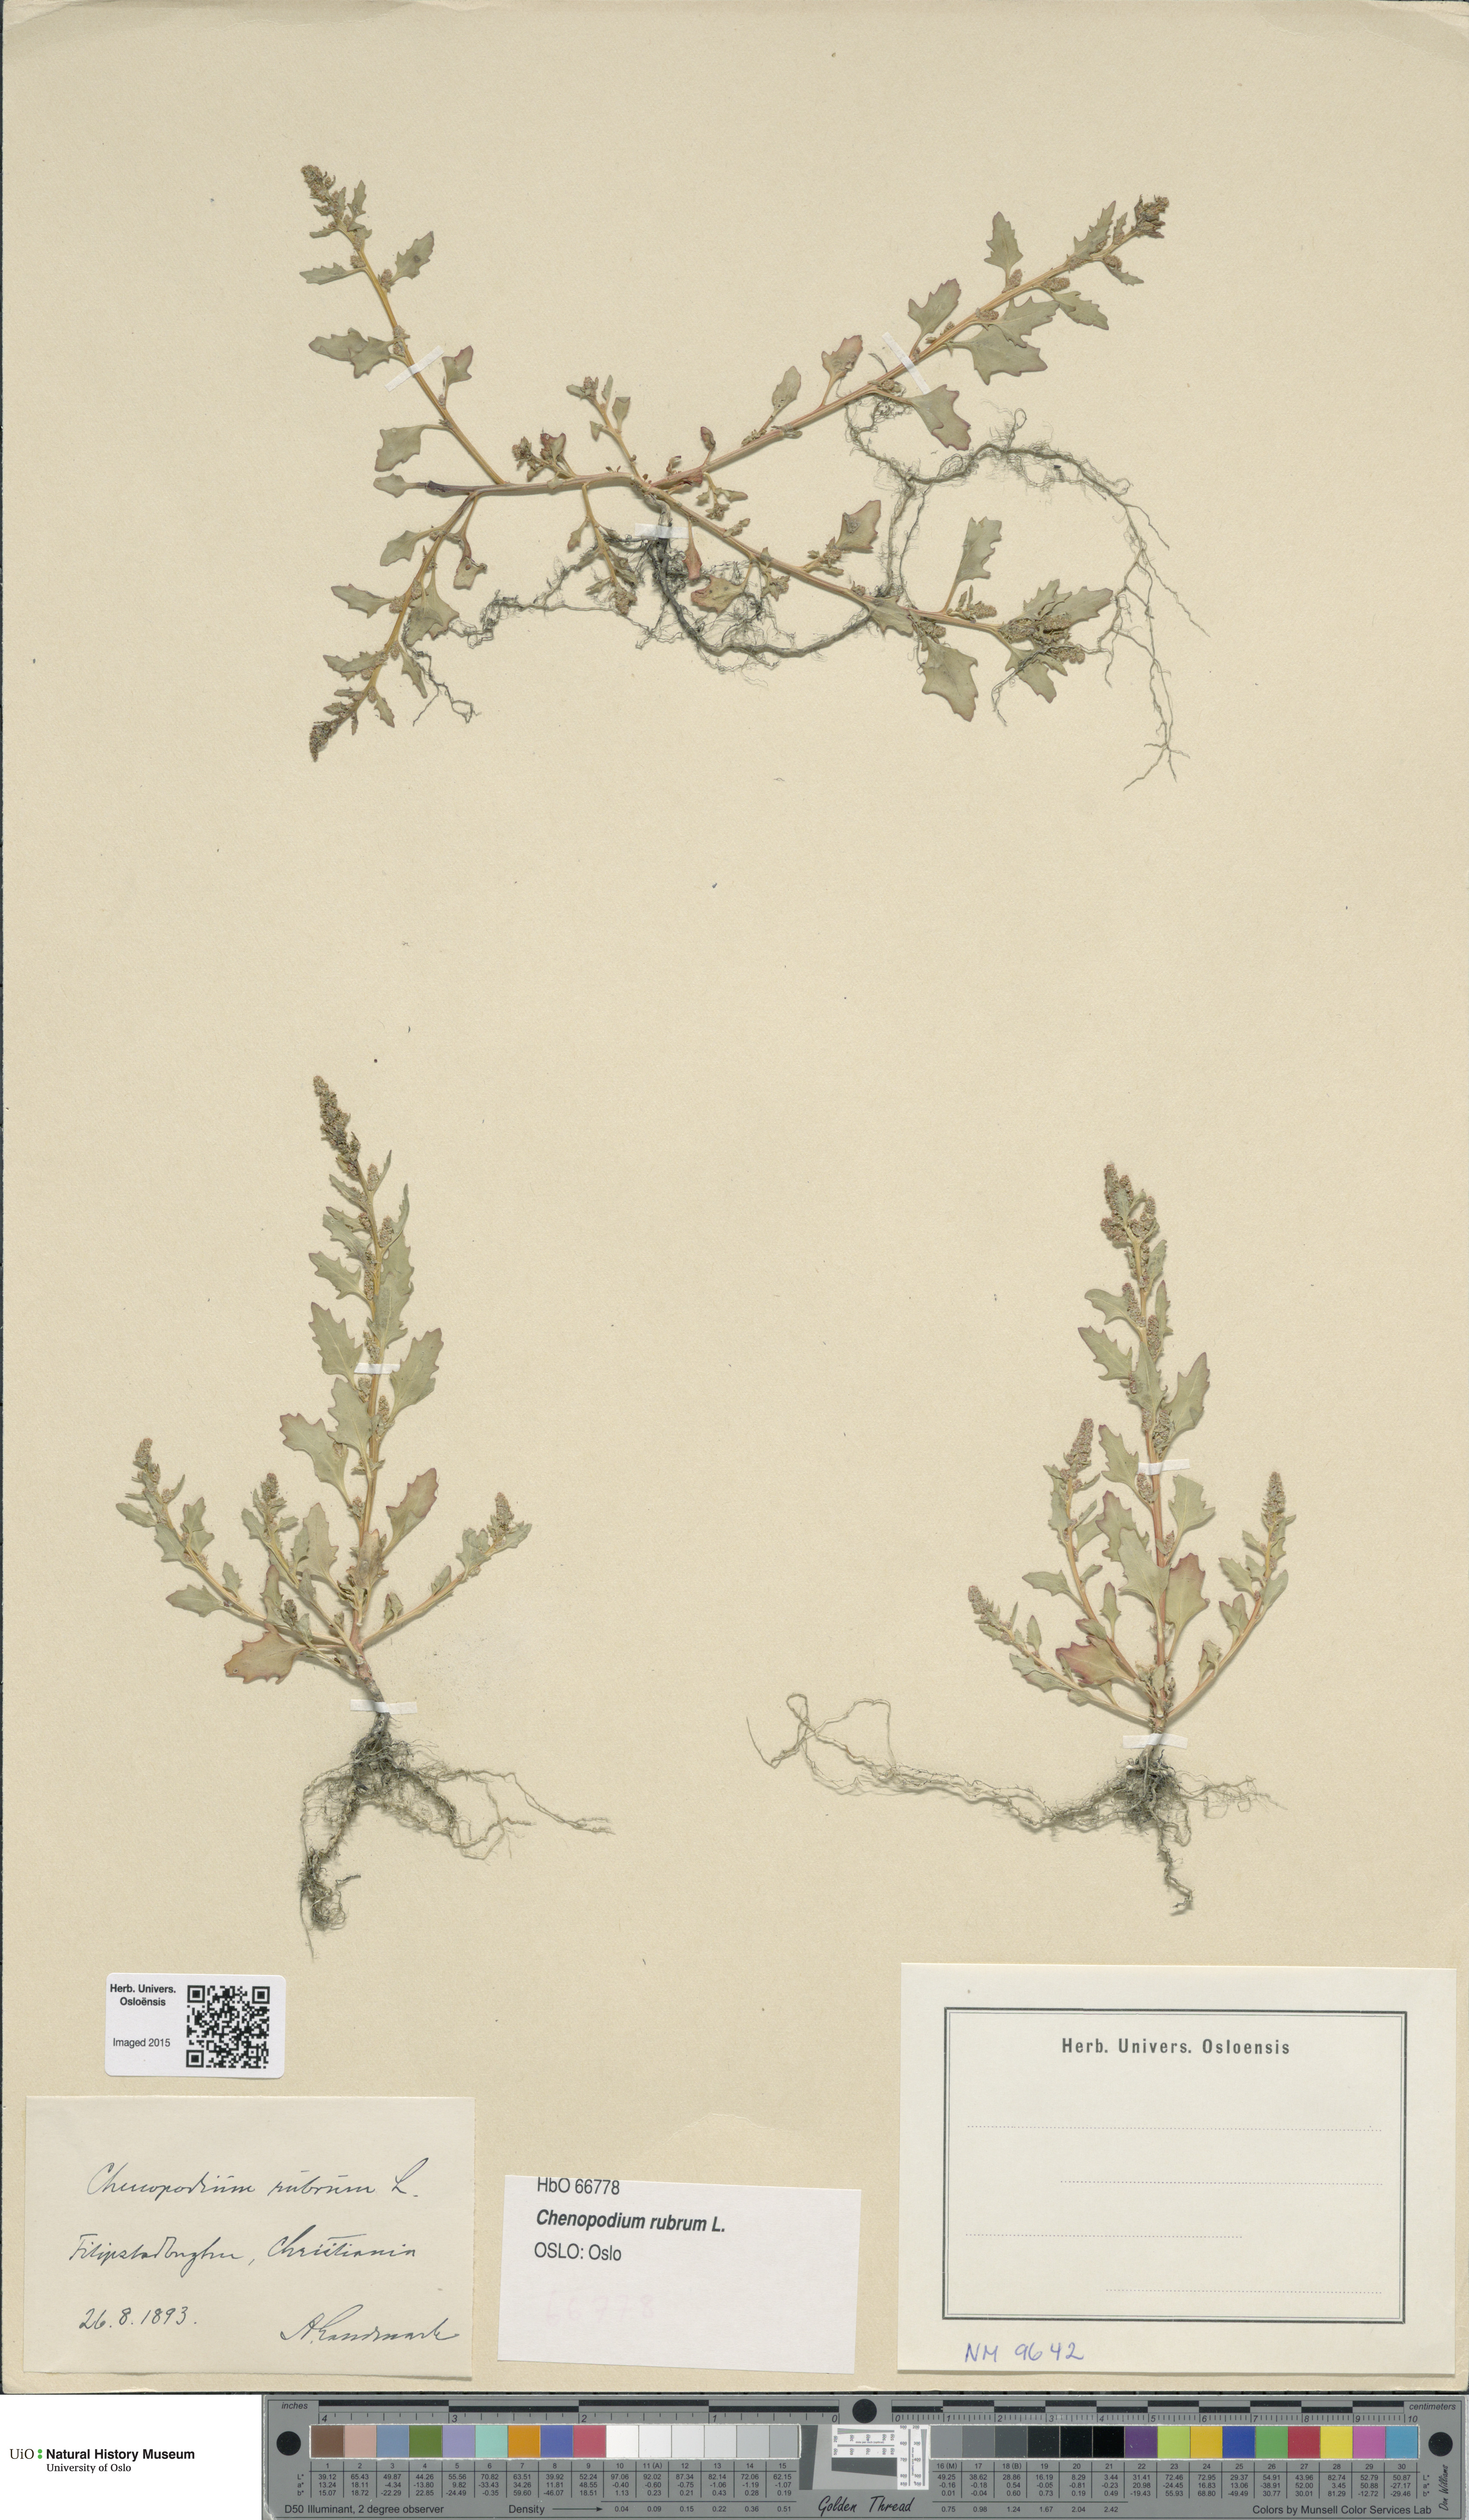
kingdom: Plantae
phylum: Tracheophyta
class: Magnoliopsida
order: Caryophyllales
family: Amaranthaceae
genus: Oxybasis
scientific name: Oxybasis rubra
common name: Red goosefoot
